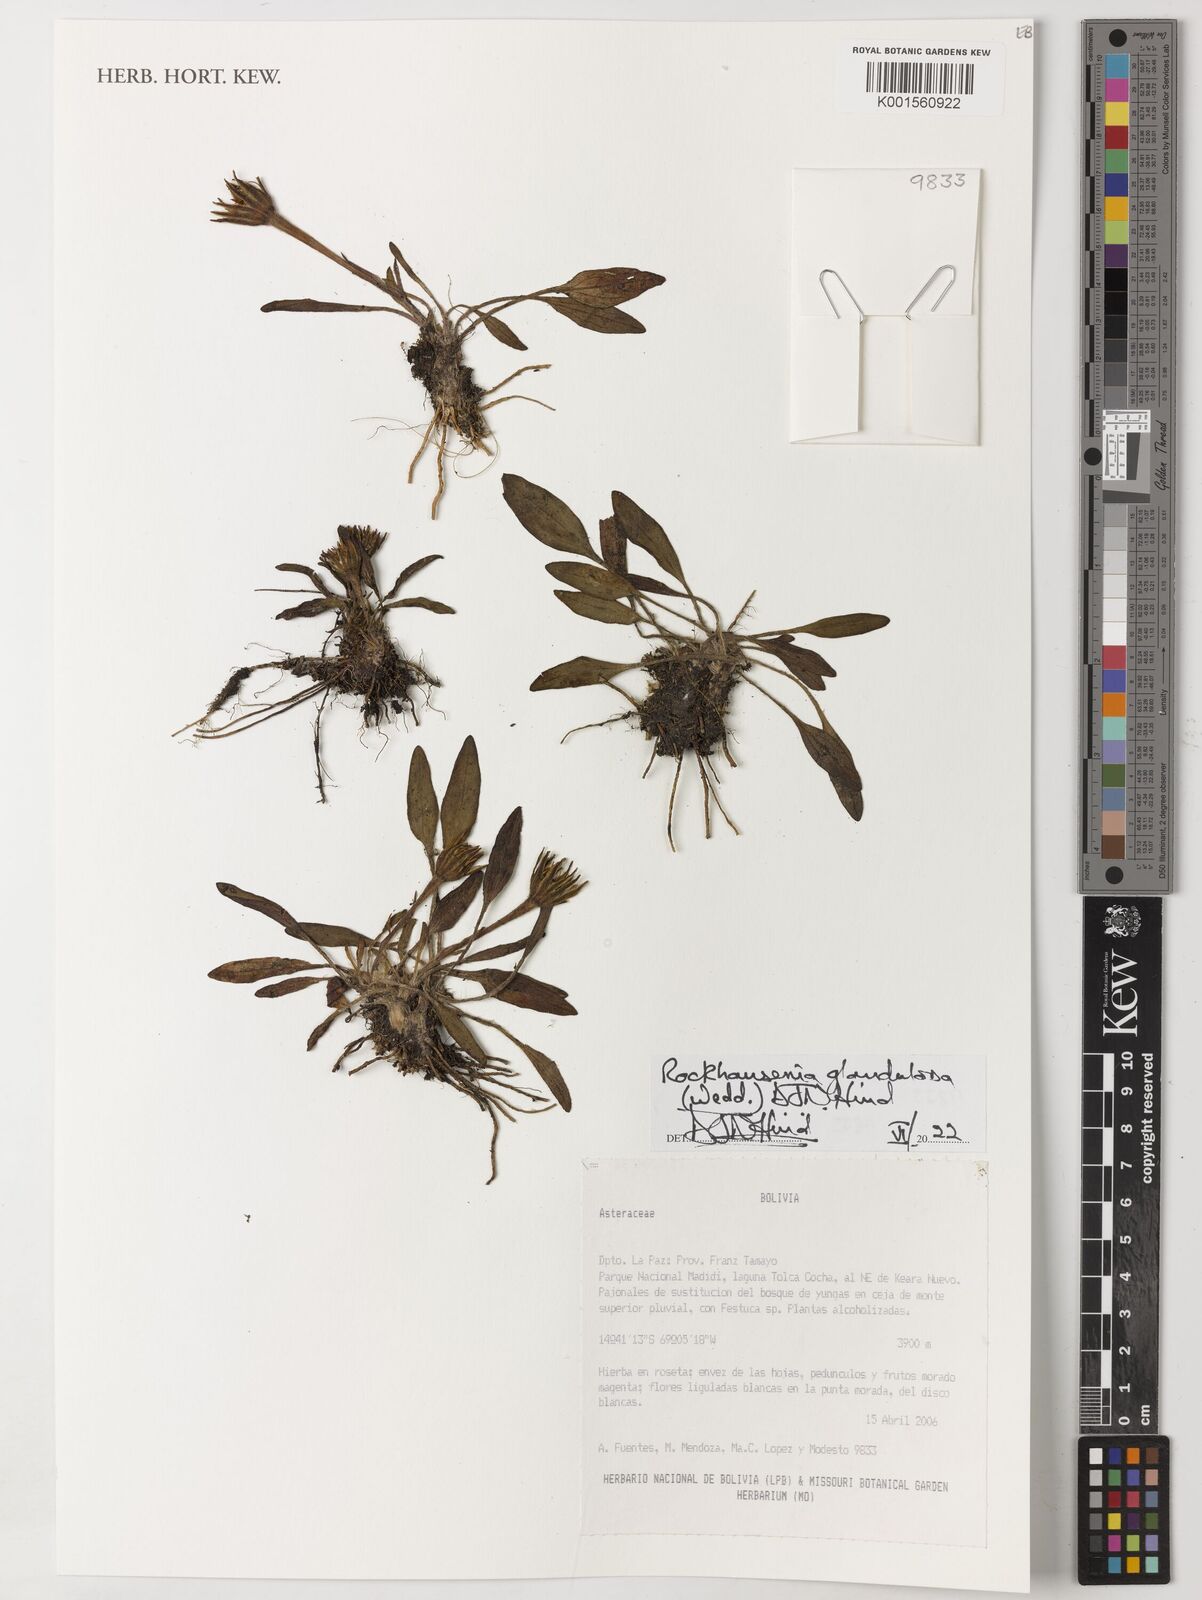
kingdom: Plantae
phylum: Tracheophyta
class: Magnoliopsida
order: Asterales
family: Asteraceae
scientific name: Asteraceae
